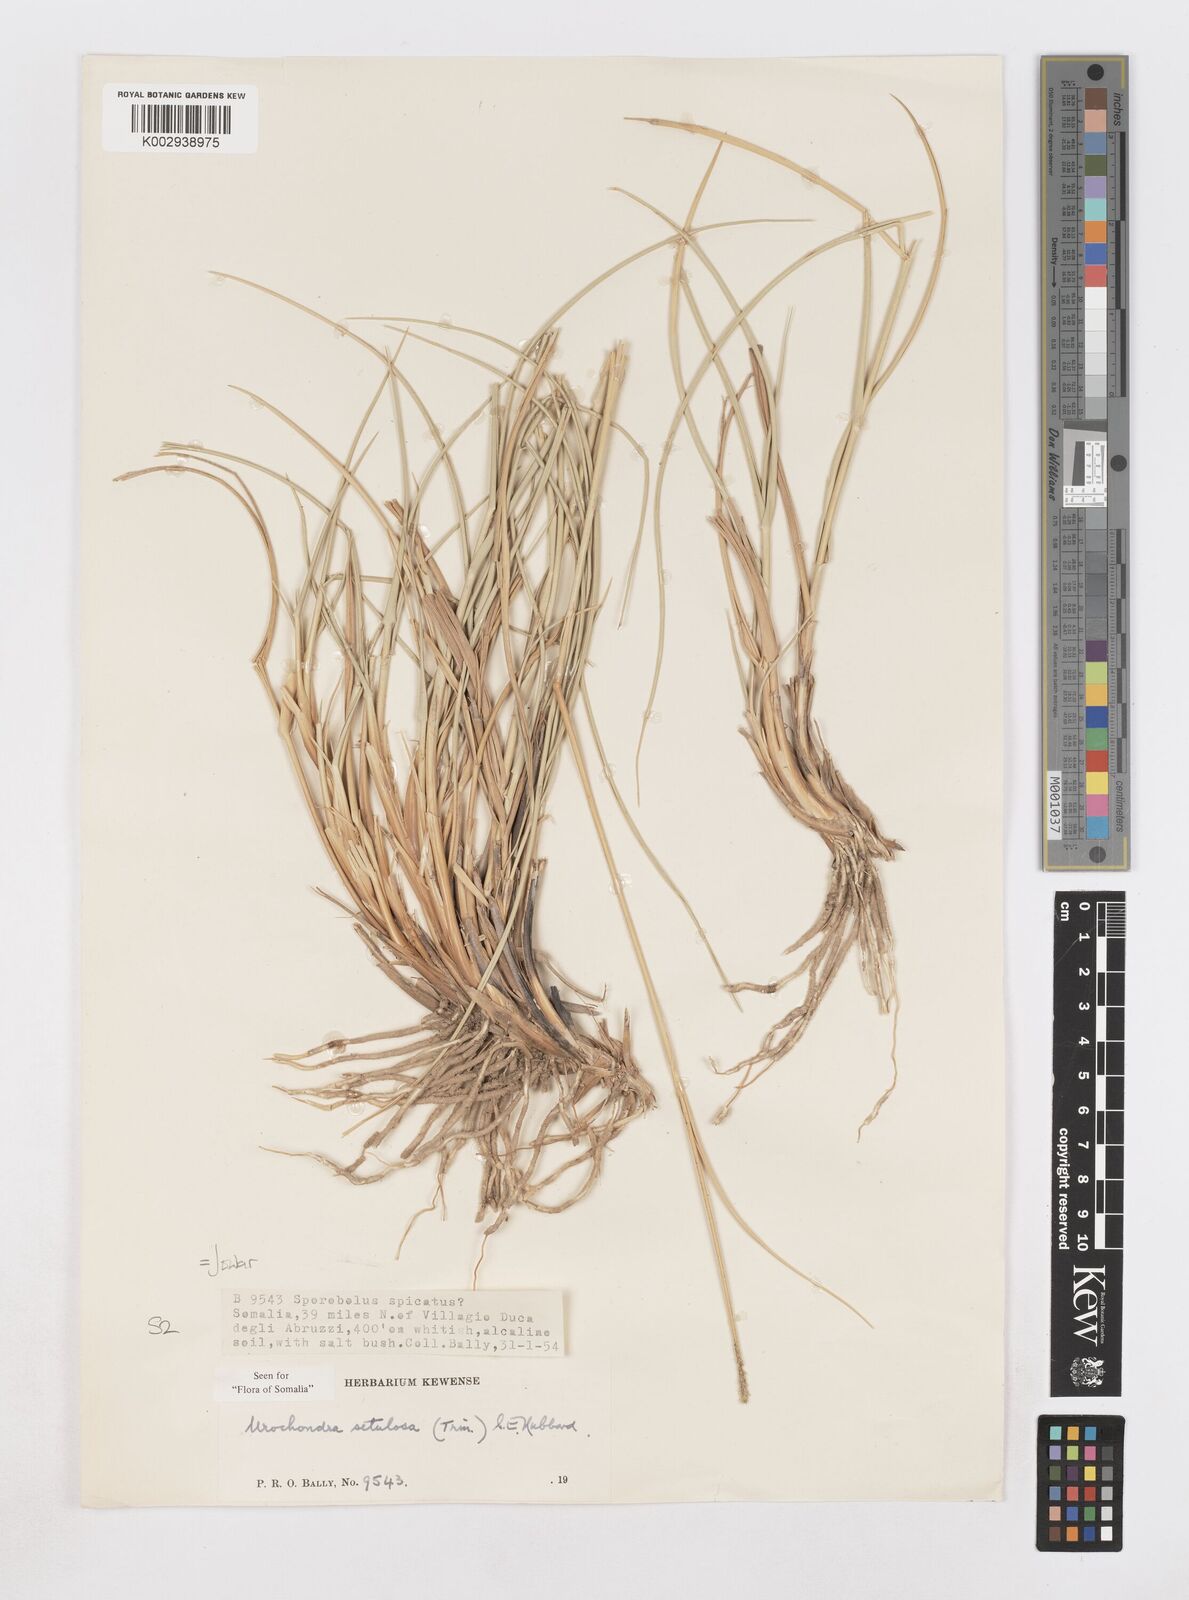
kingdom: Plantae
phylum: Tracheophyta
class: Liliopsida
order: Poales
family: Poaceae
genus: Urochondra
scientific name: Urochondra setulosa
